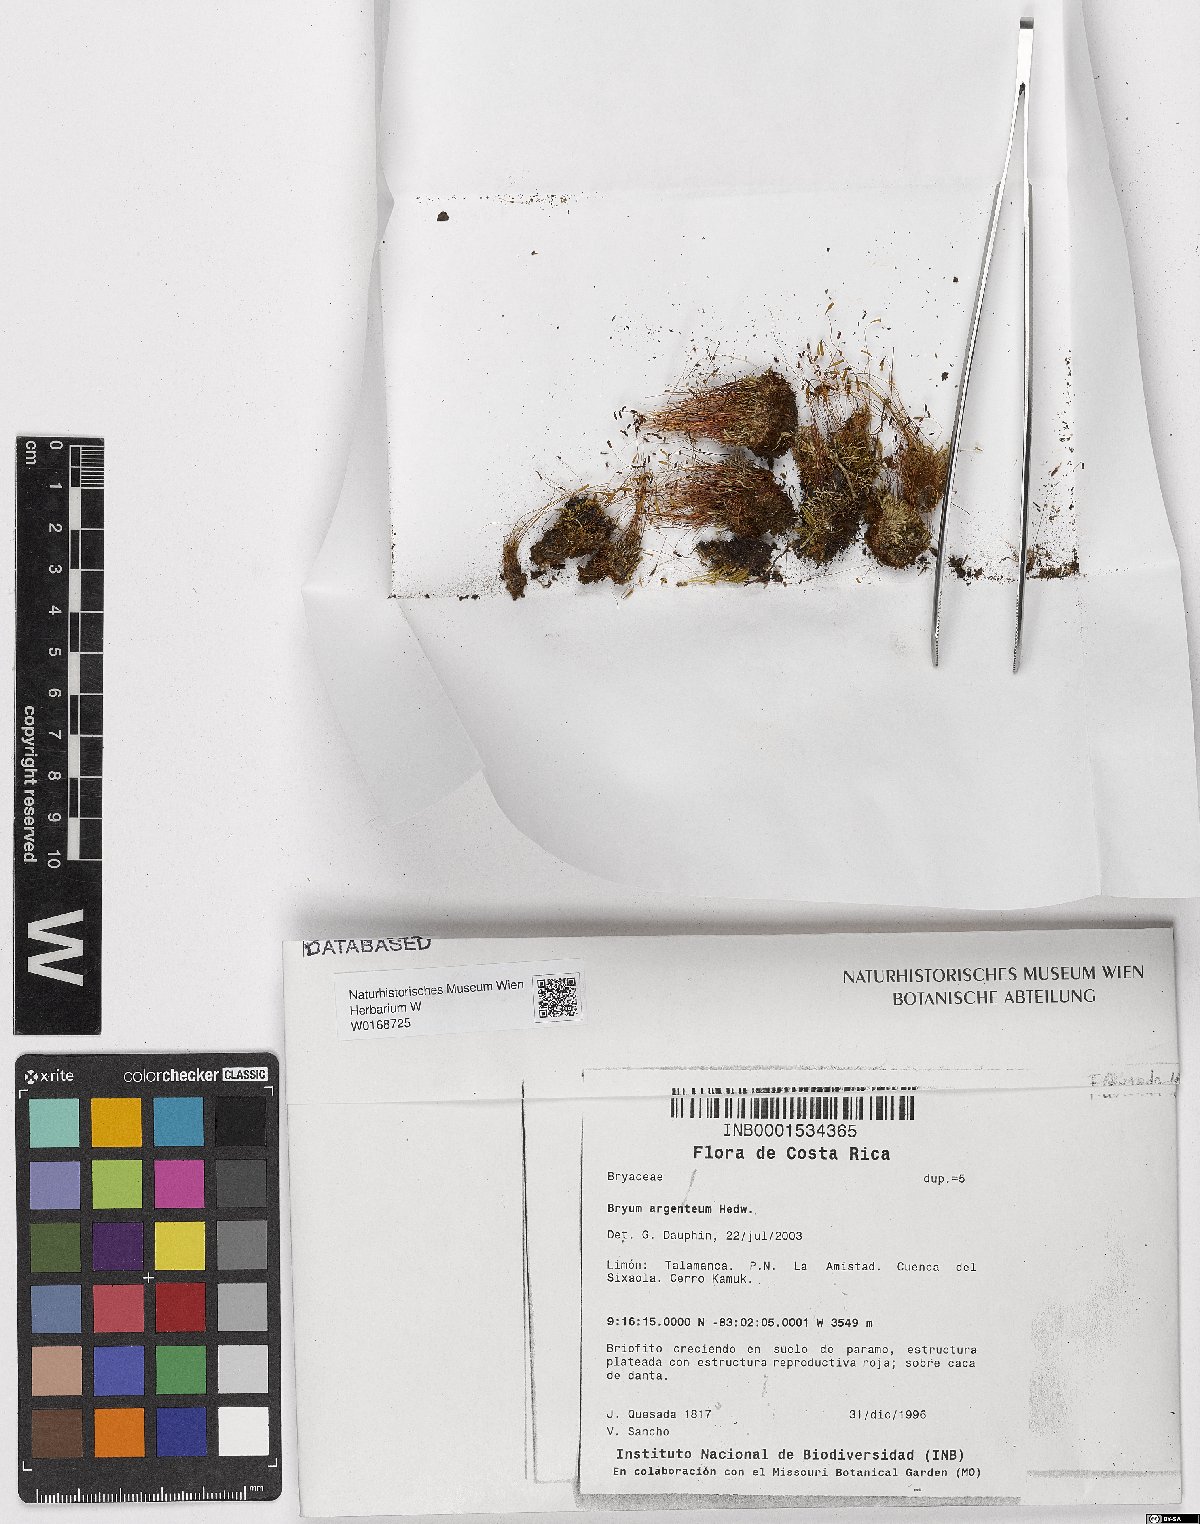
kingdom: Plantae
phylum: Bryophyta
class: Bryopsida
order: Bryales
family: Bryaceae
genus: Bryum
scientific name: Bryum argenteum
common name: Silver-moss
